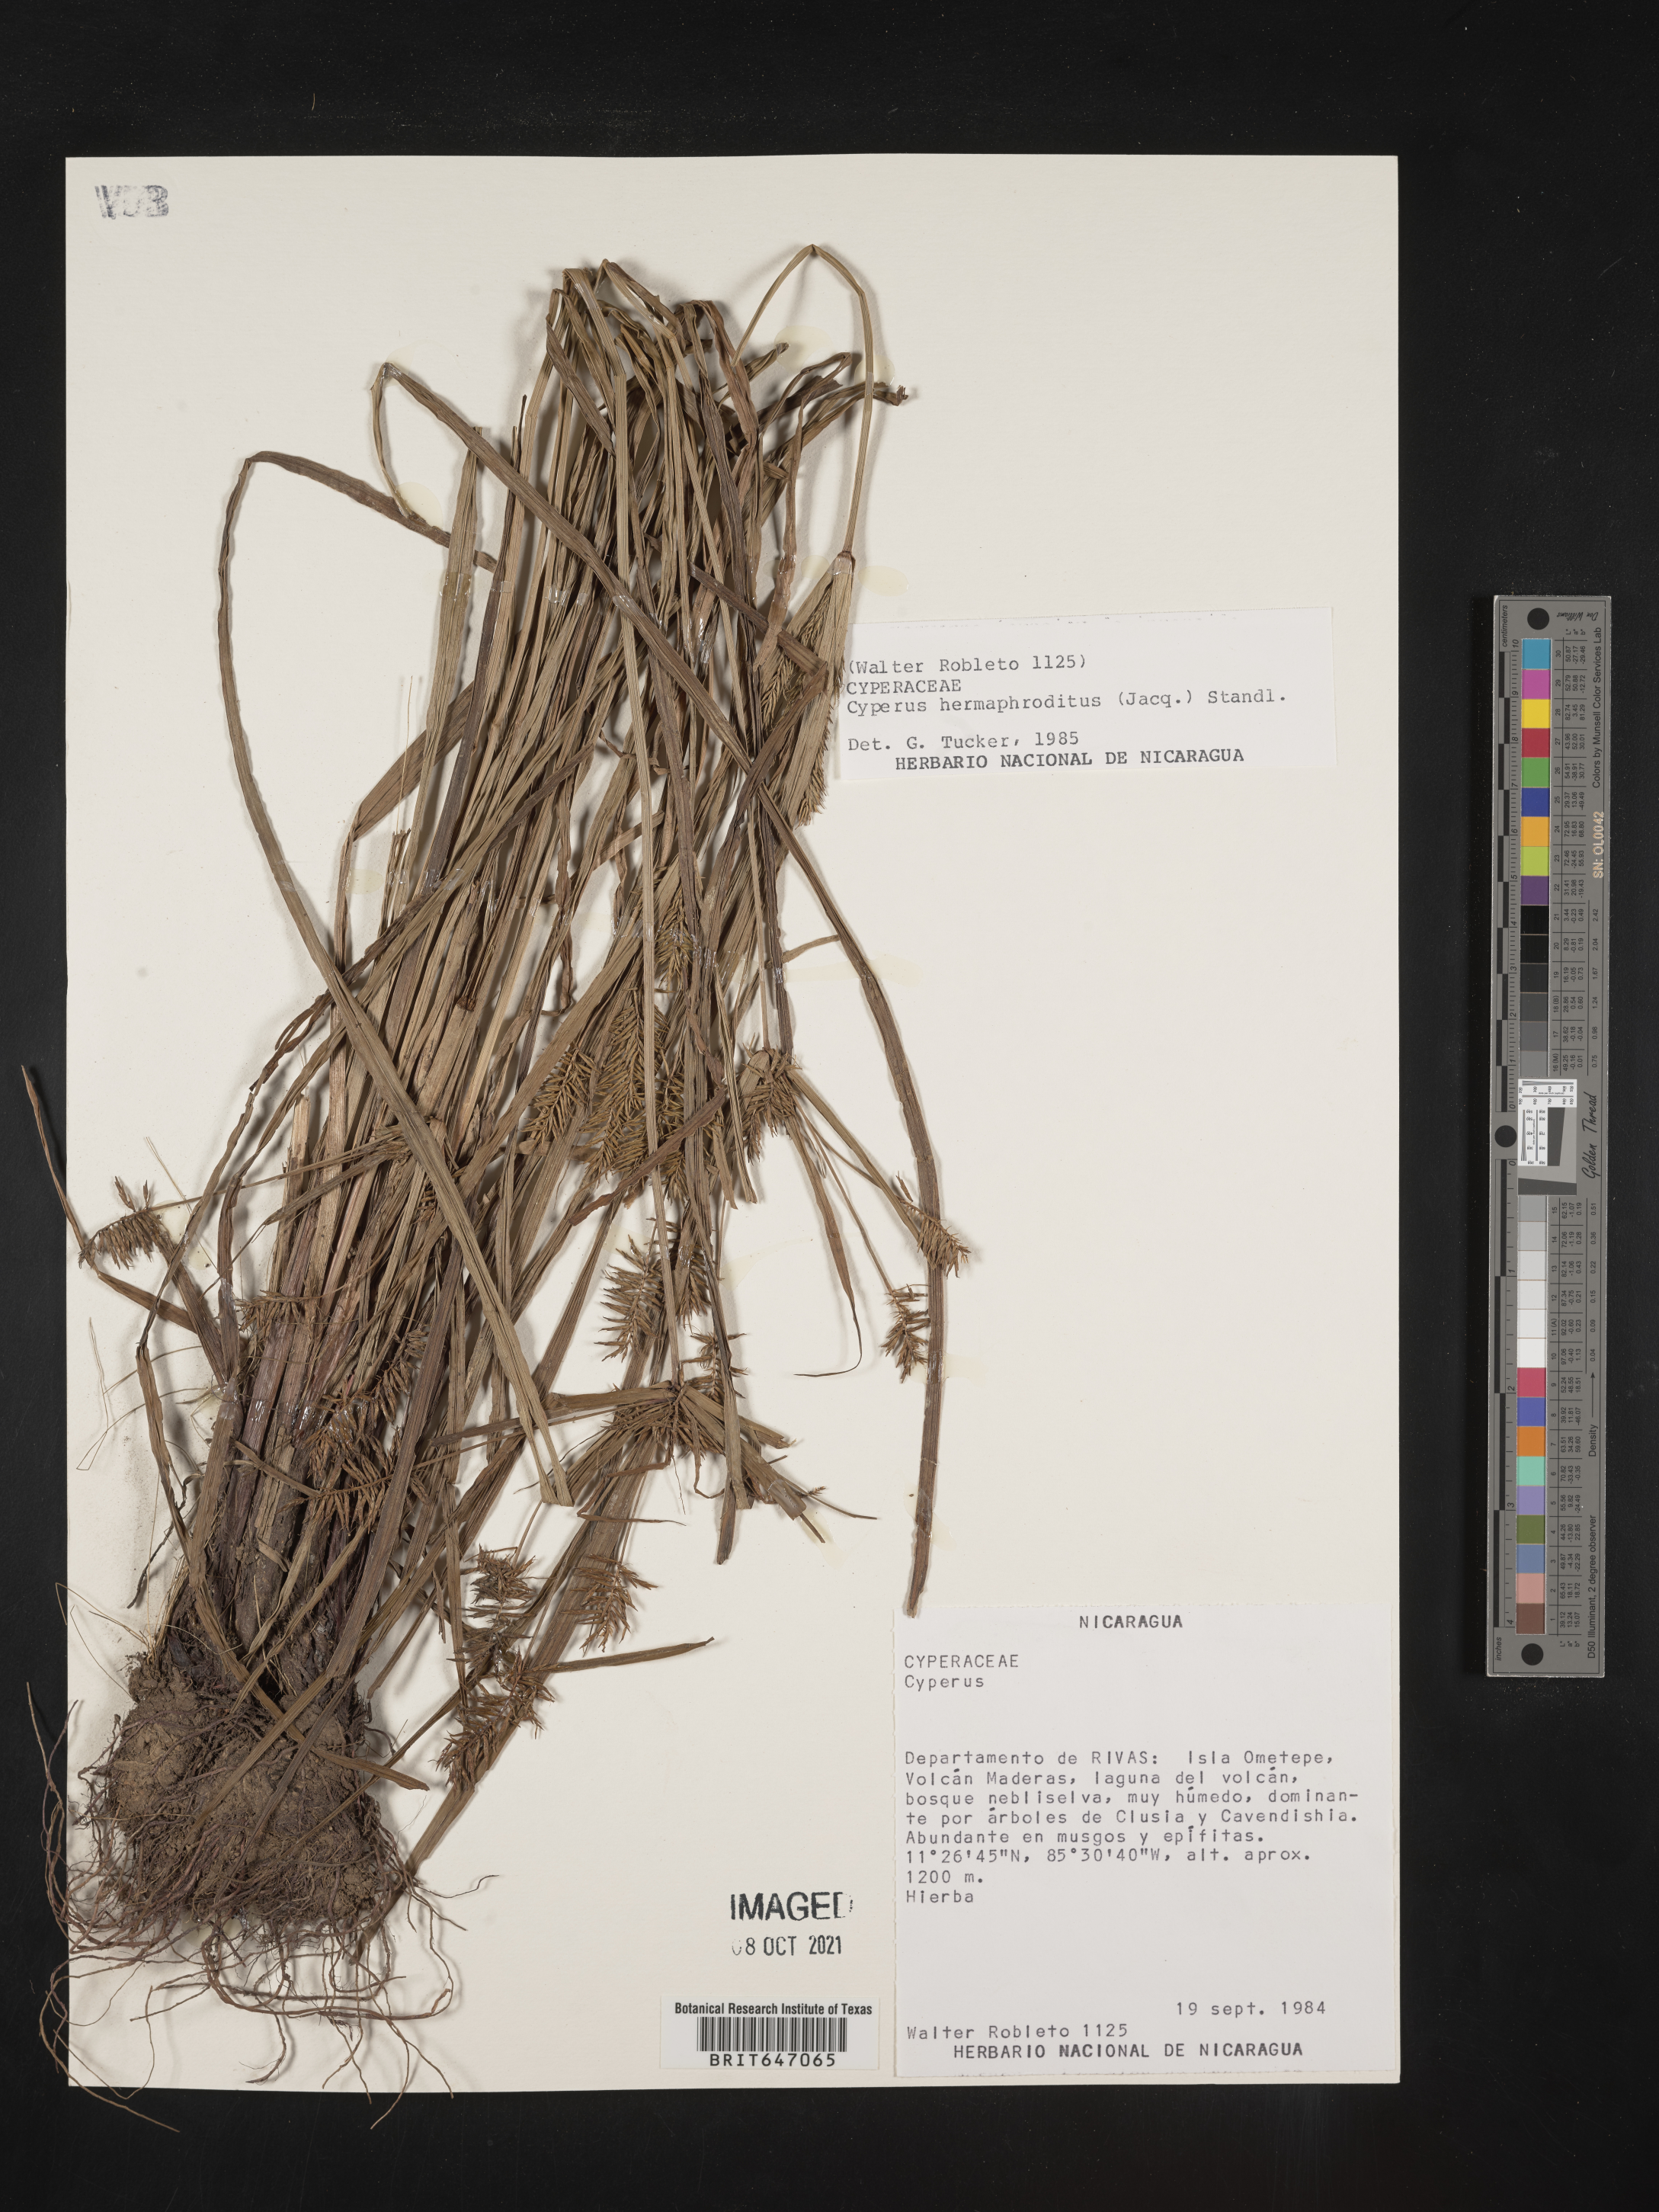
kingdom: Plantae
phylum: Tracheophyta
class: Liliopsida
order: Poales
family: Cyperaceae
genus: Cyperus
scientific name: Cyperus hermaphroditus
